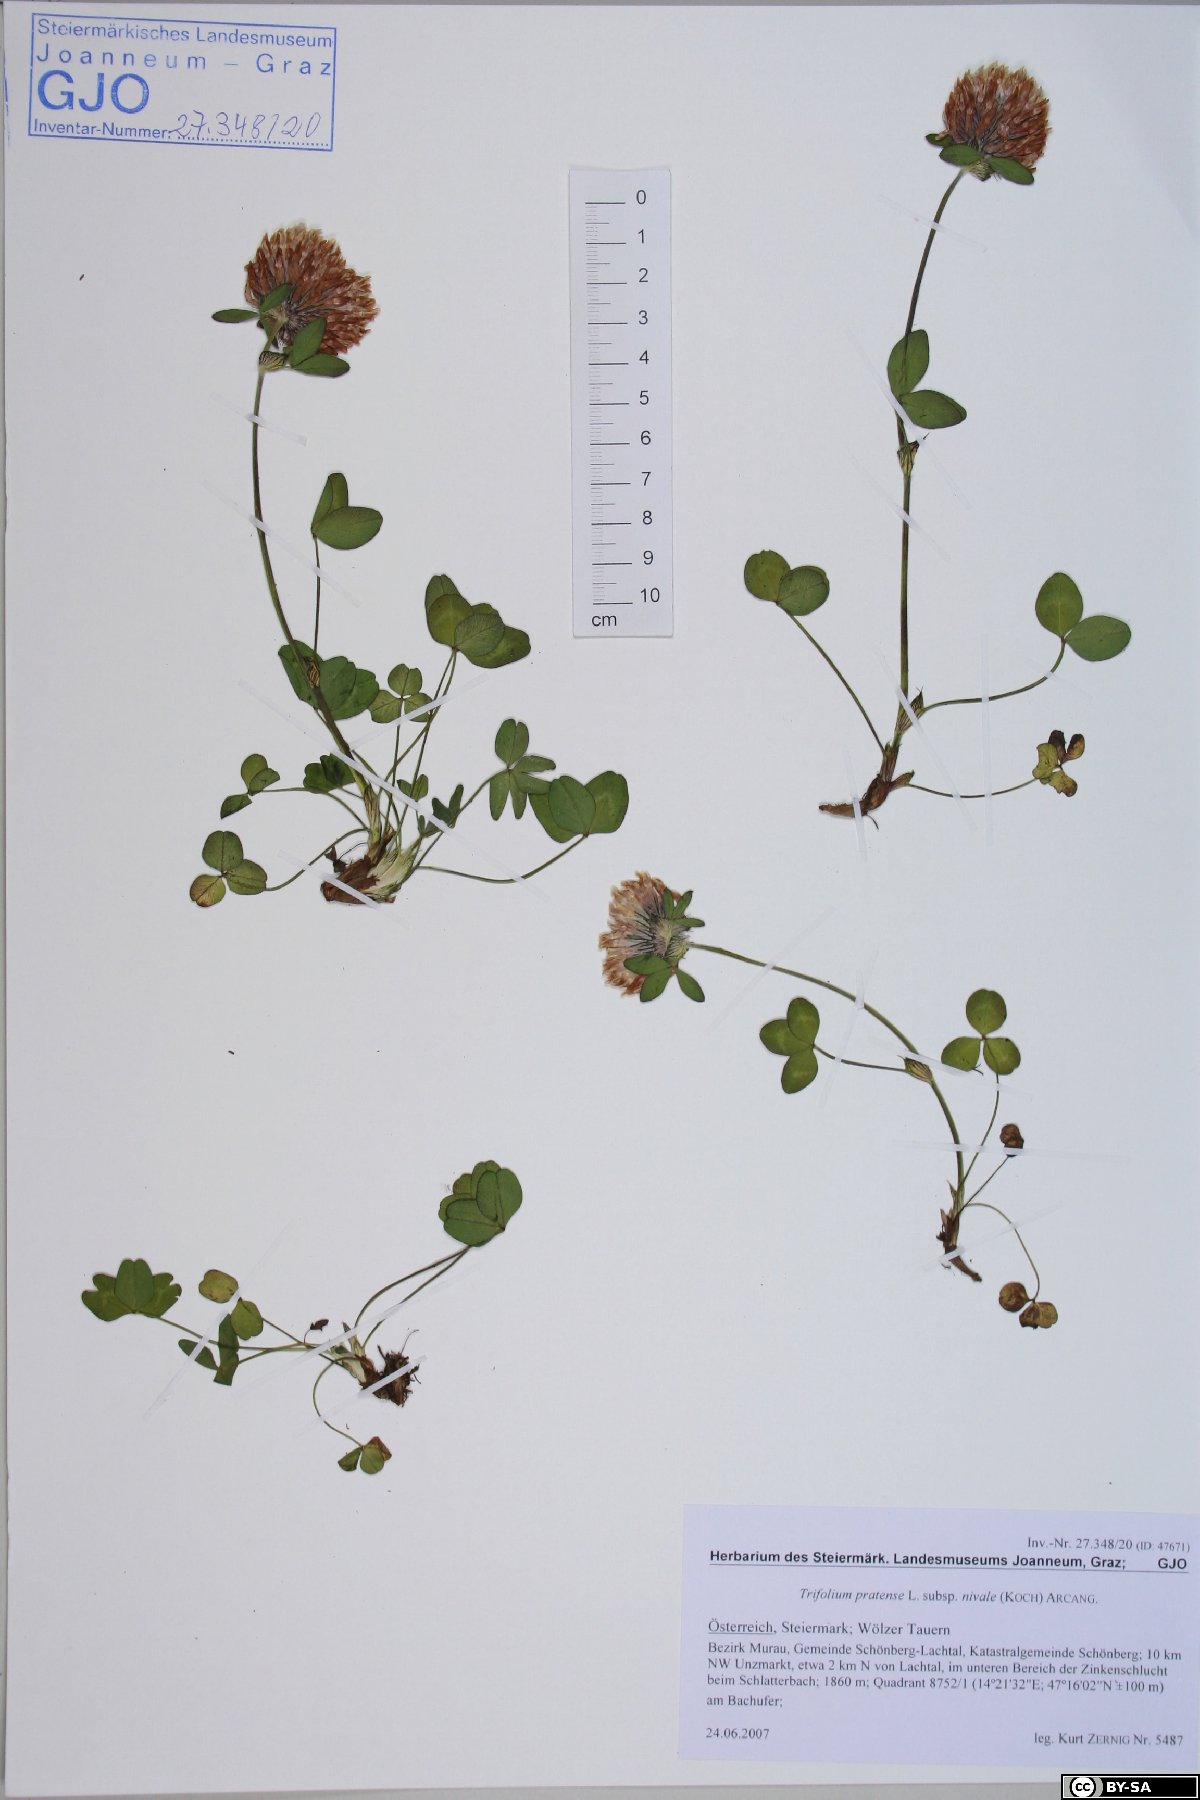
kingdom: Plantae
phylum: Tracheophyta
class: Magnoliopsida
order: Fabales
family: Fabaceae
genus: Trifolium
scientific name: Trifolium pratense
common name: Red clover
